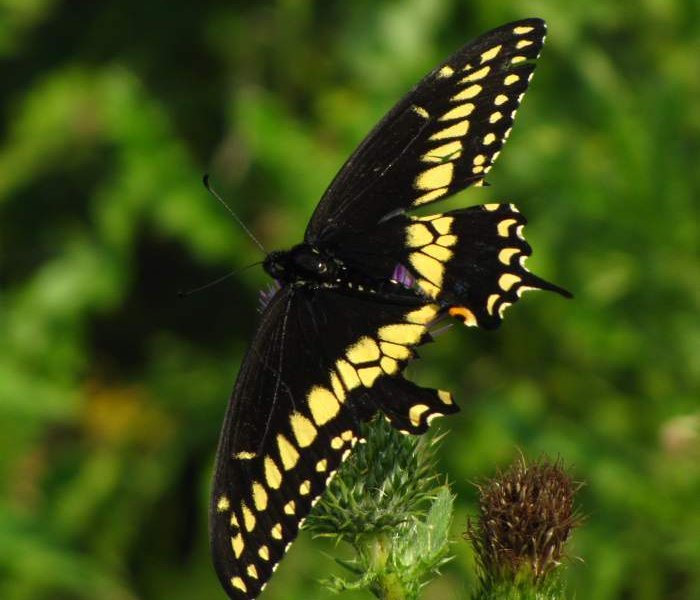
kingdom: Animalia
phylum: Arthropoda
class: Insecta
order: Lepidoptera
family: Papilionidae
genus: Papilio
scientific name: Papilio polyxenes
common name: Black Swallowtail
